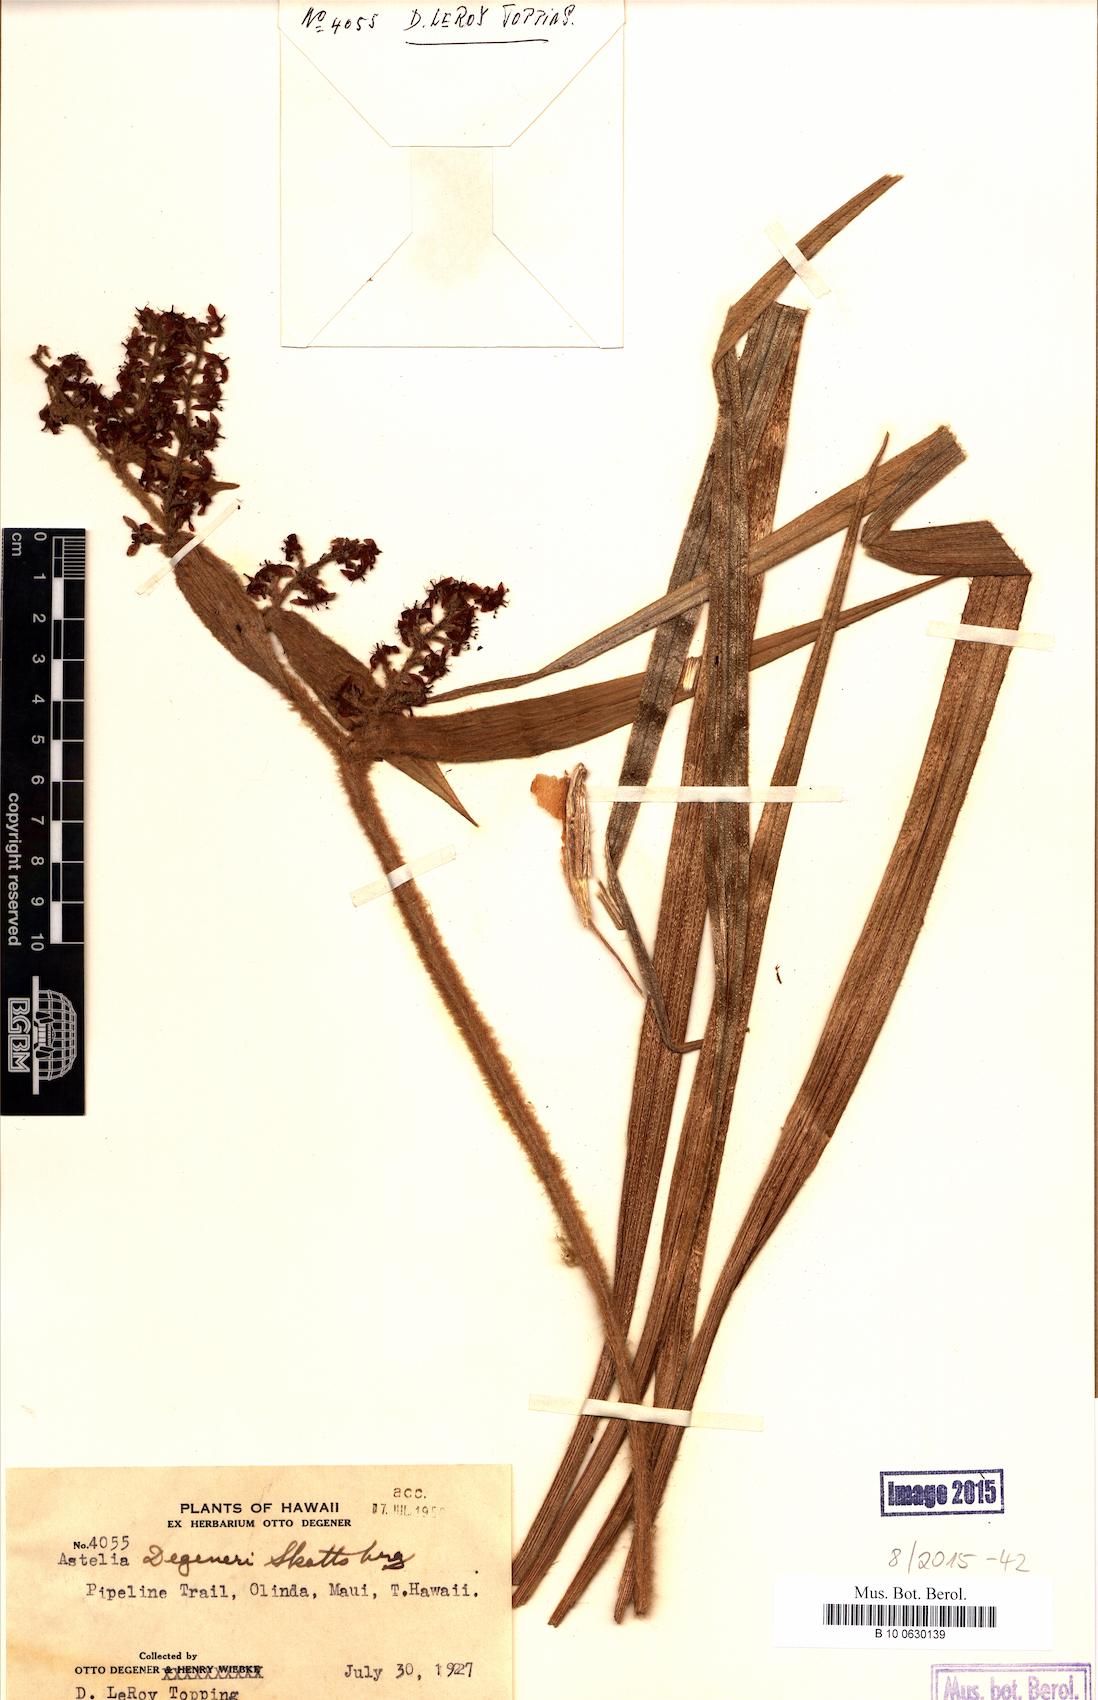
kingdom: Plantae
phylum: Tracheophyta
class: Liliopsida
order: Asparagales
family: Asteliaceae
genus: Astelia
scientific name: Astelia menziesiana
